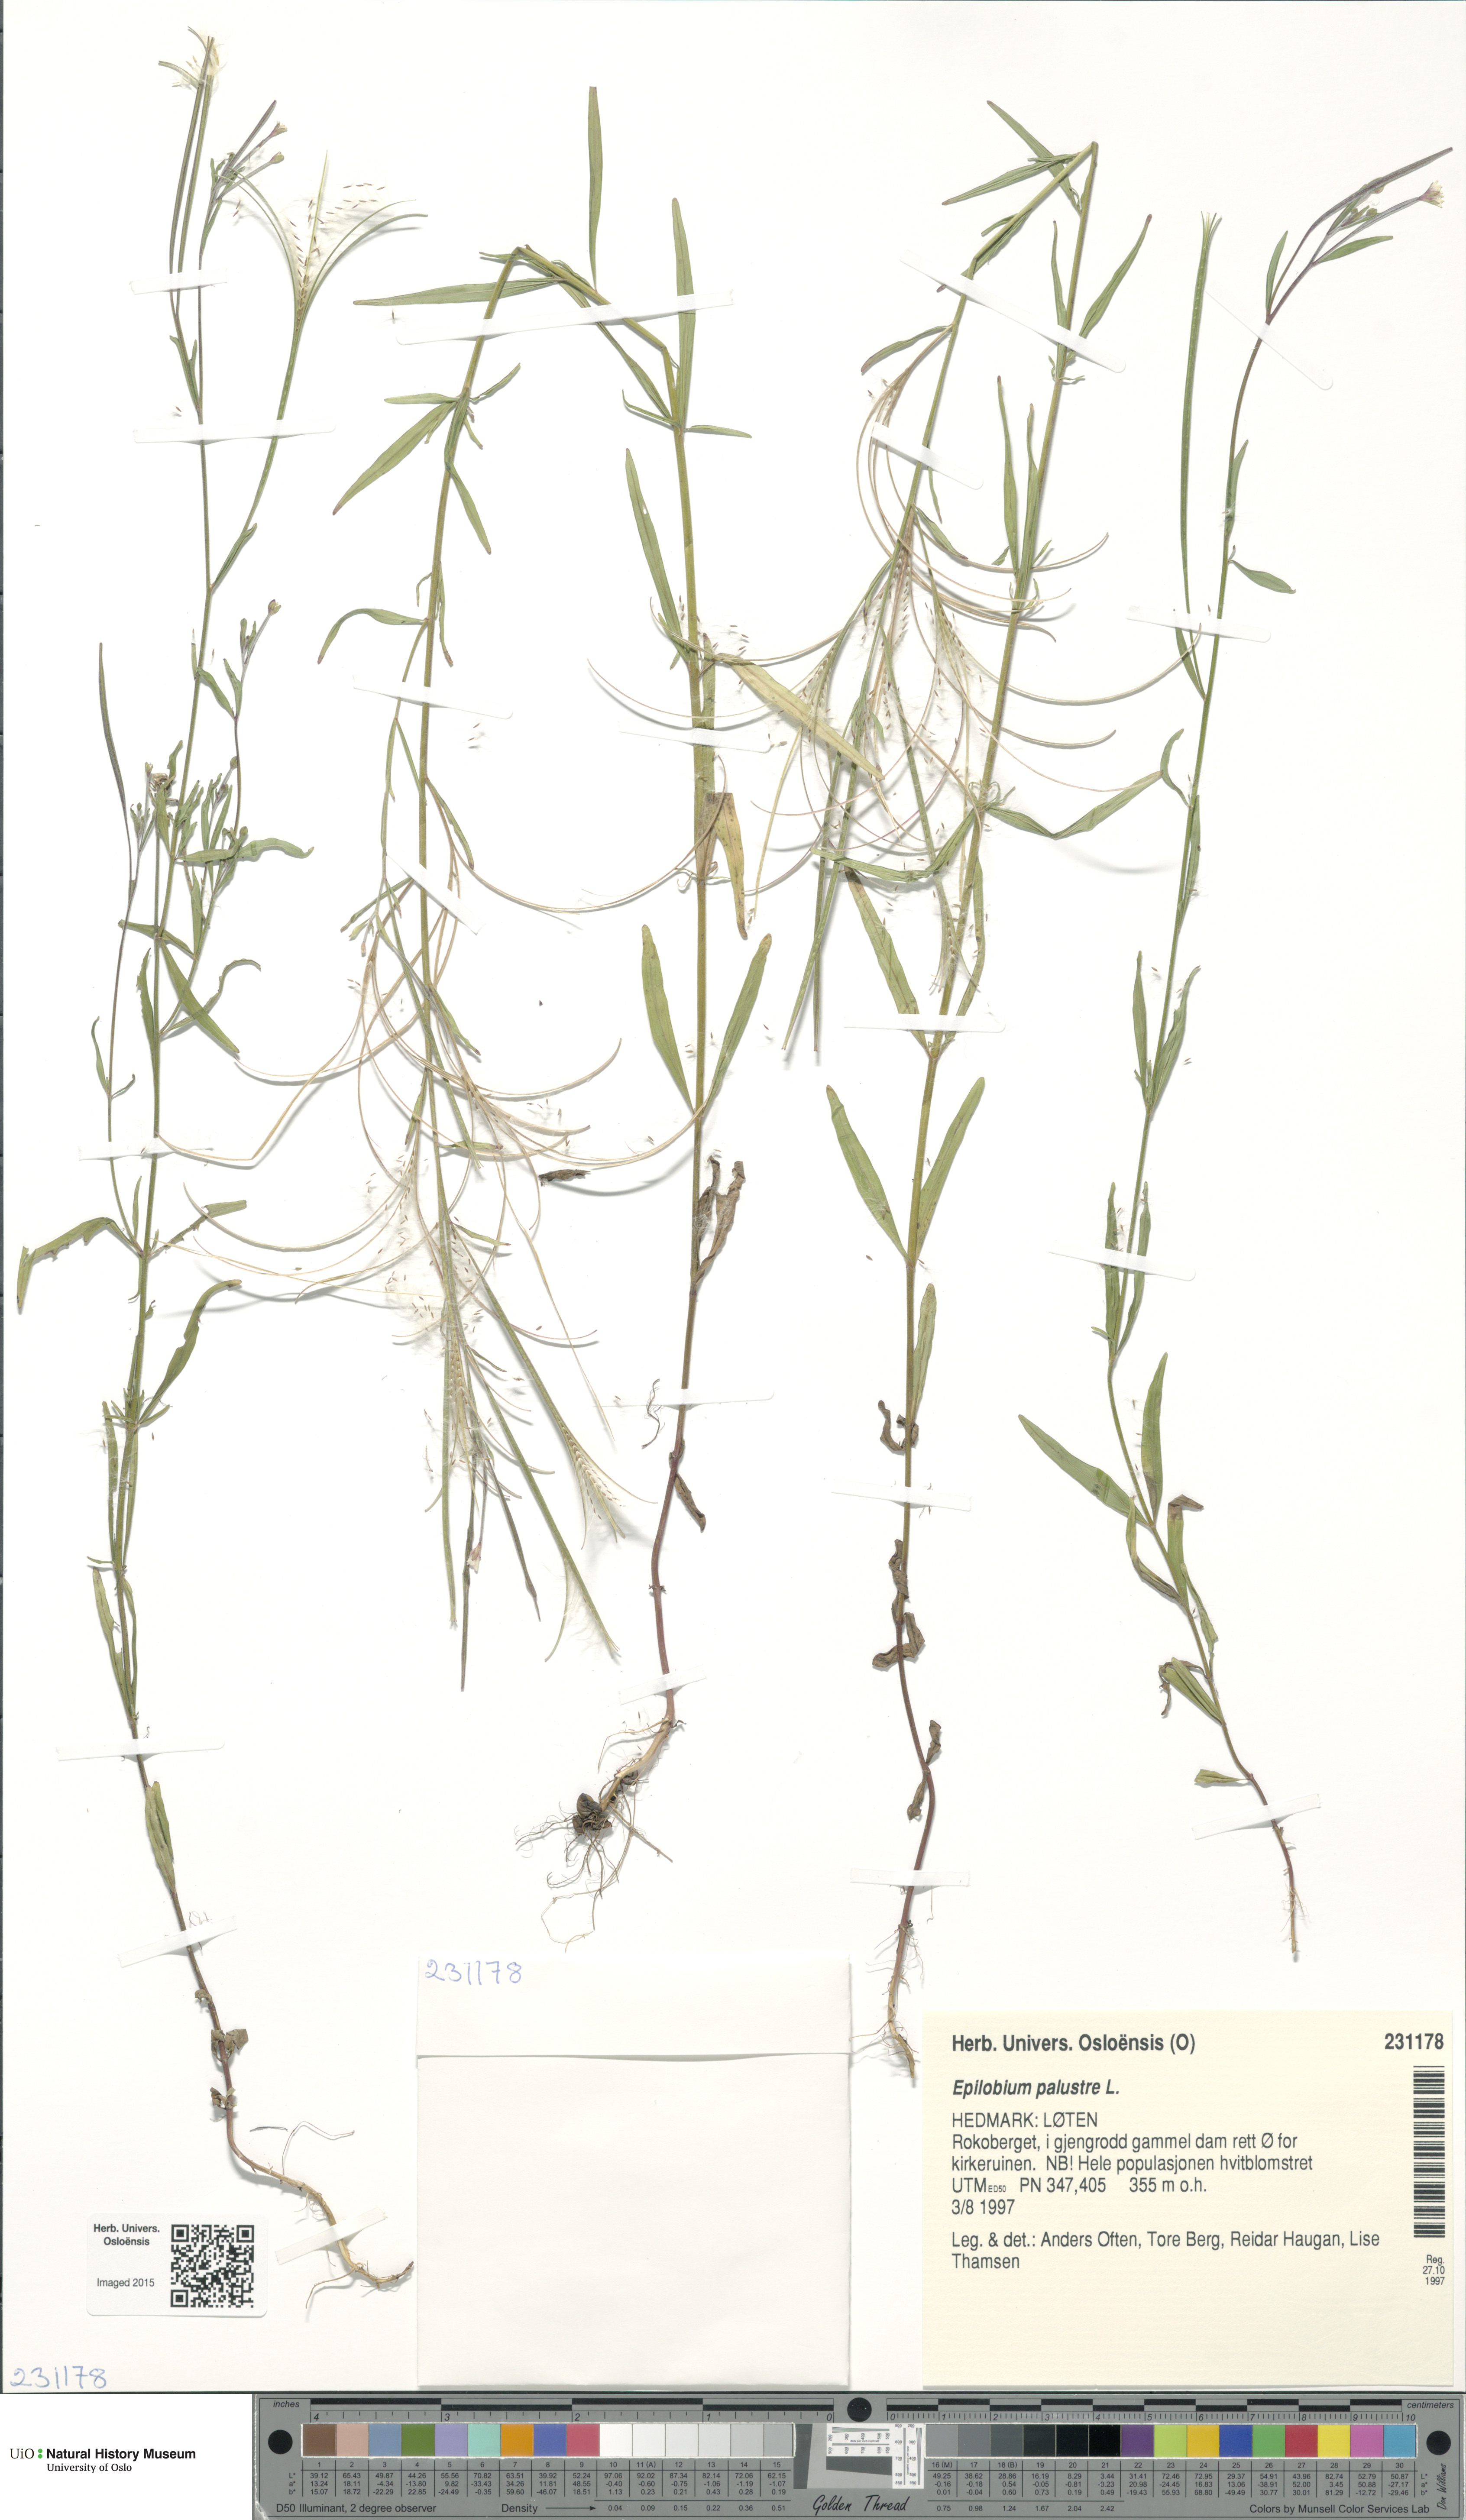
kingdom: Plantae
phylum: Tracheophyta
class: Magnoliopsida
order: Myrtales
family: Onagraceae
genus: Epilobium
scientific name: Epilobium palustre
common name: Marsh willowherb
